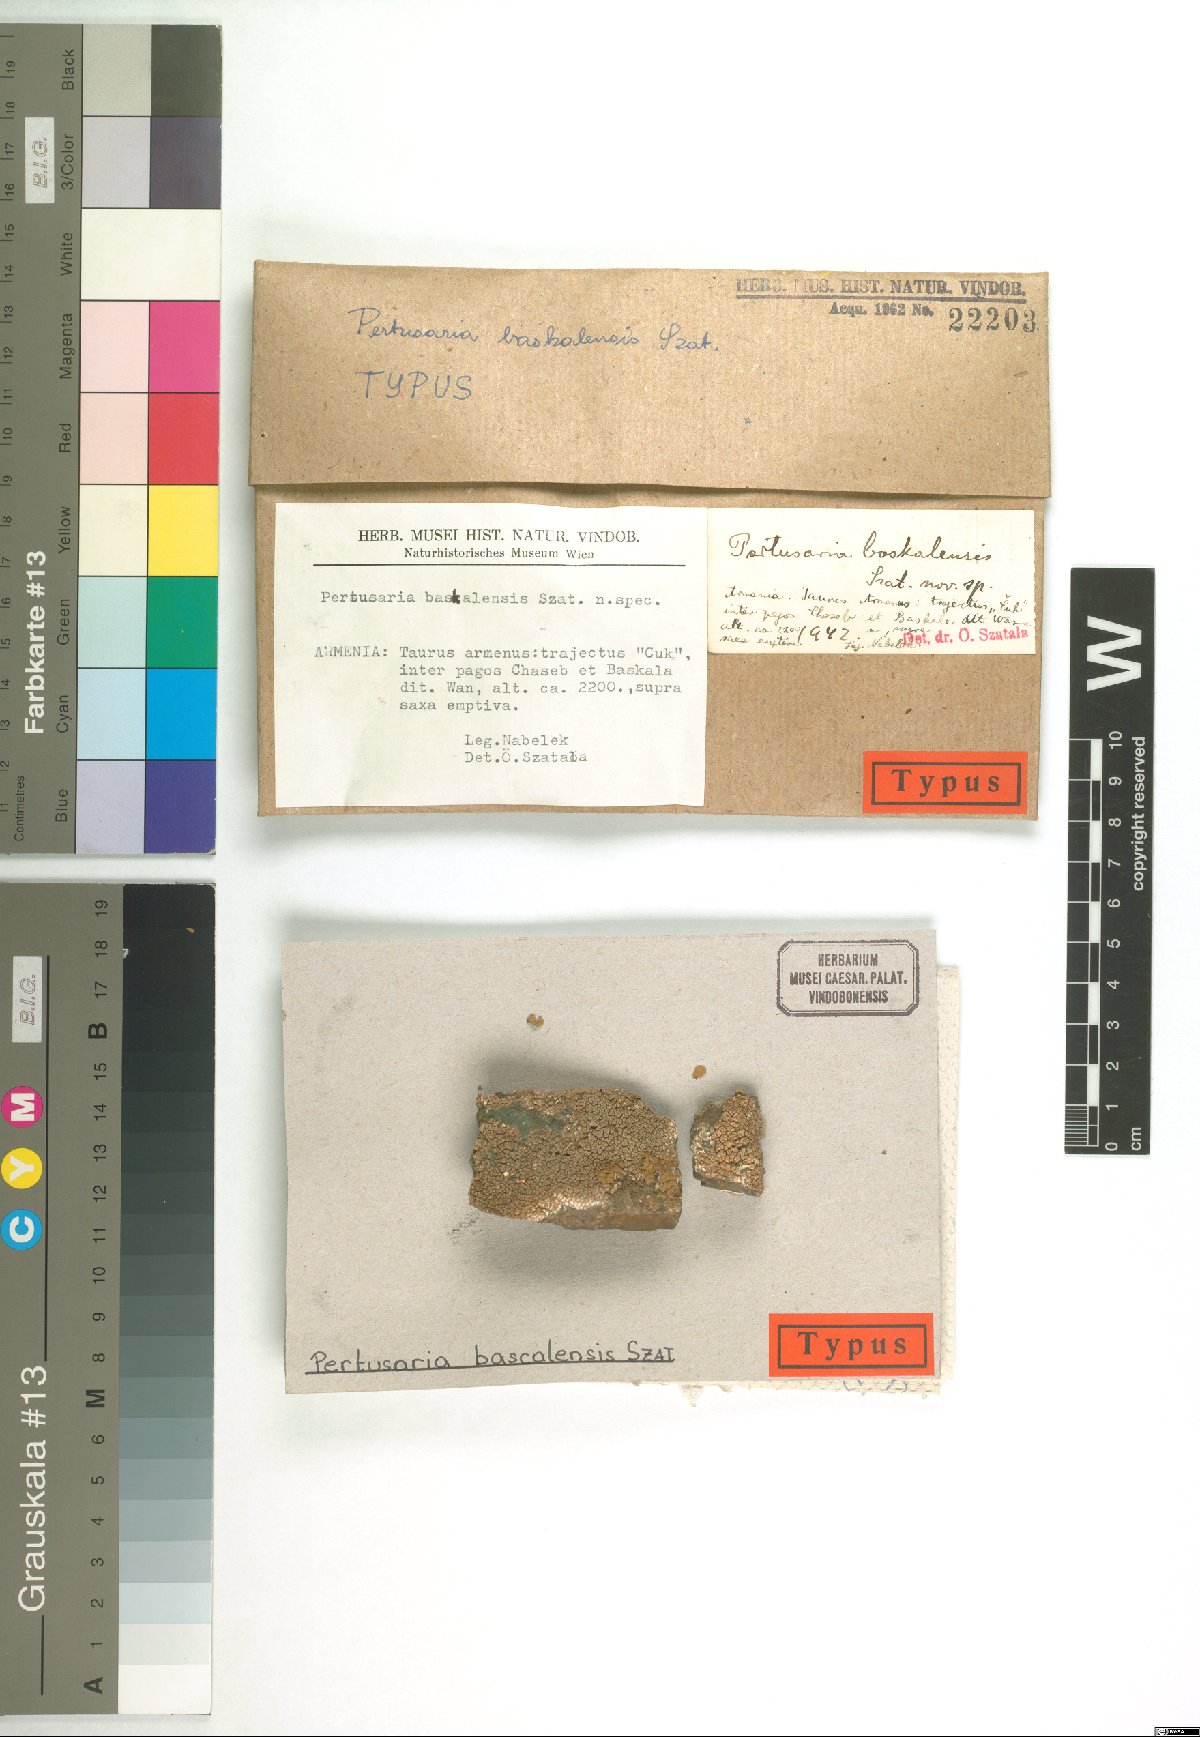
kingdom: Fungi
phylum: Ascomycota
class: Lecanoromycetes
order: Pertusariales
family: Pertusariaceae
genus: Pertusaria
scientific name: Pertusaria
